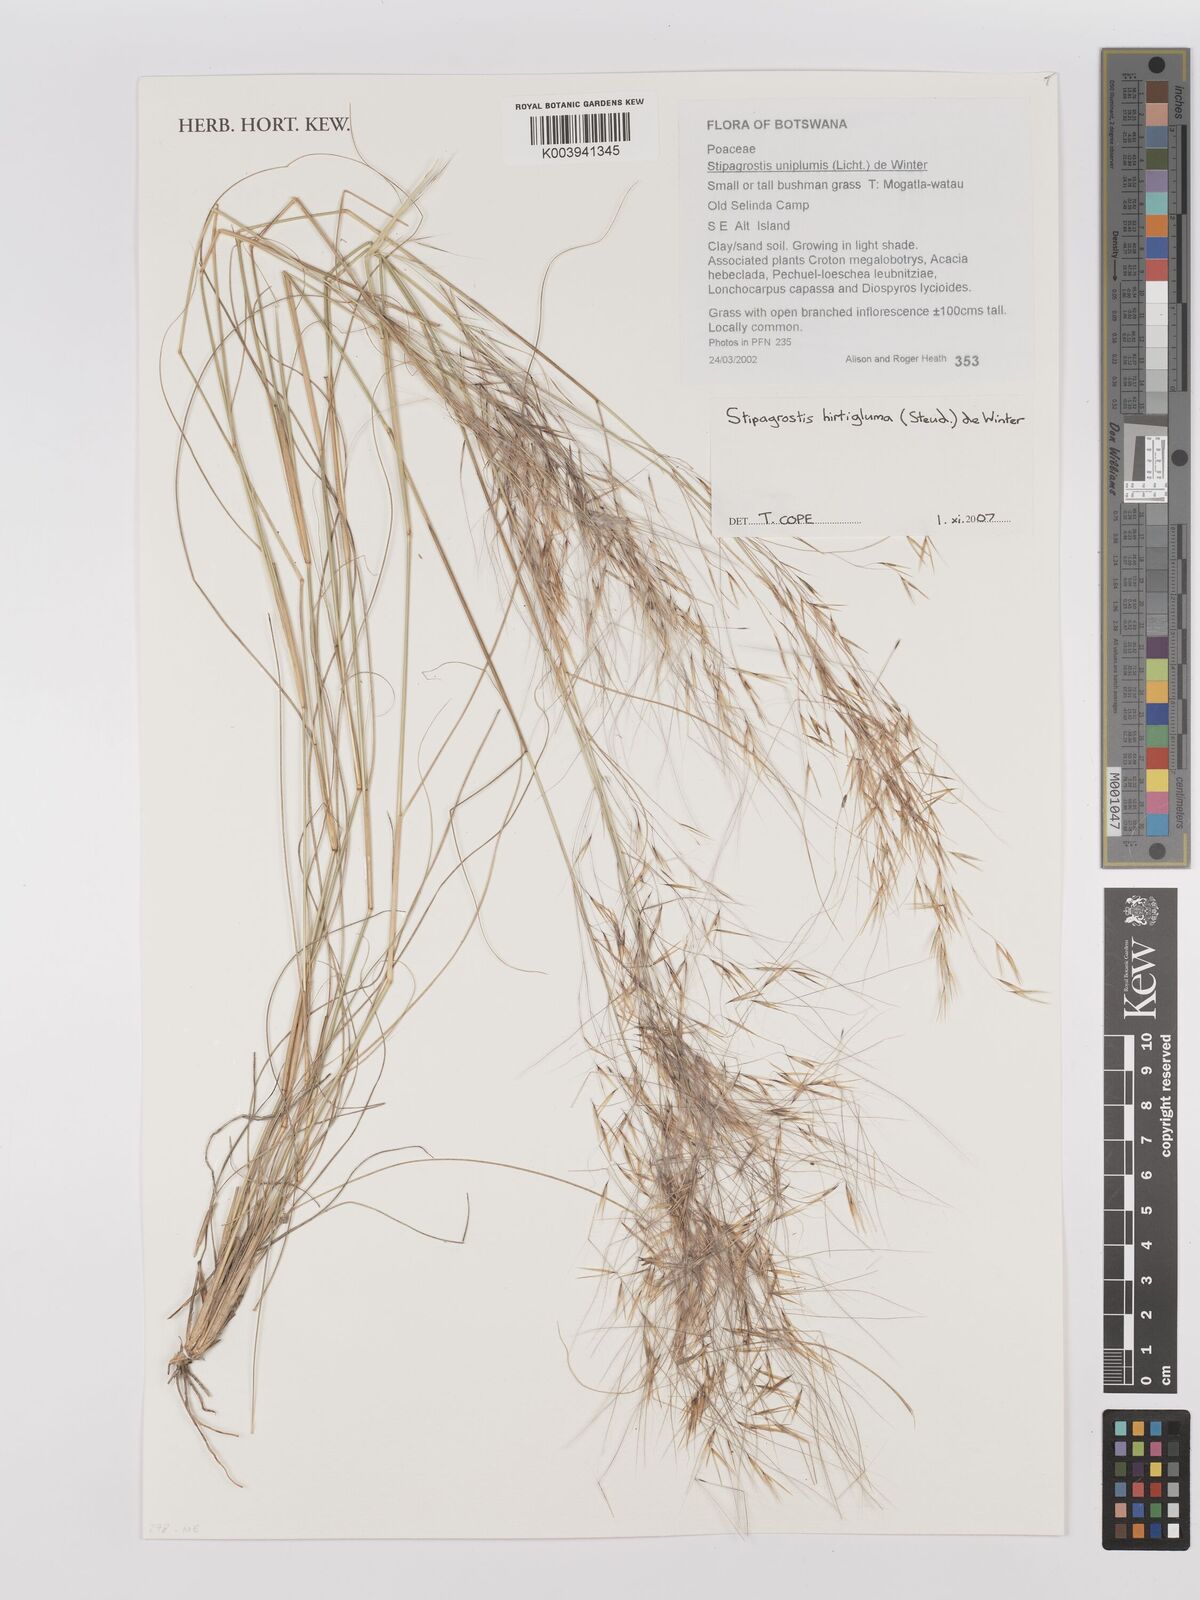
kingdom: Plantae
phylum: Tracheophyta
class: Liliopsida
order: Poales
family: Poaceae
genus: Stipagrostis
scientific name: Stipagrostis hirtigluma
